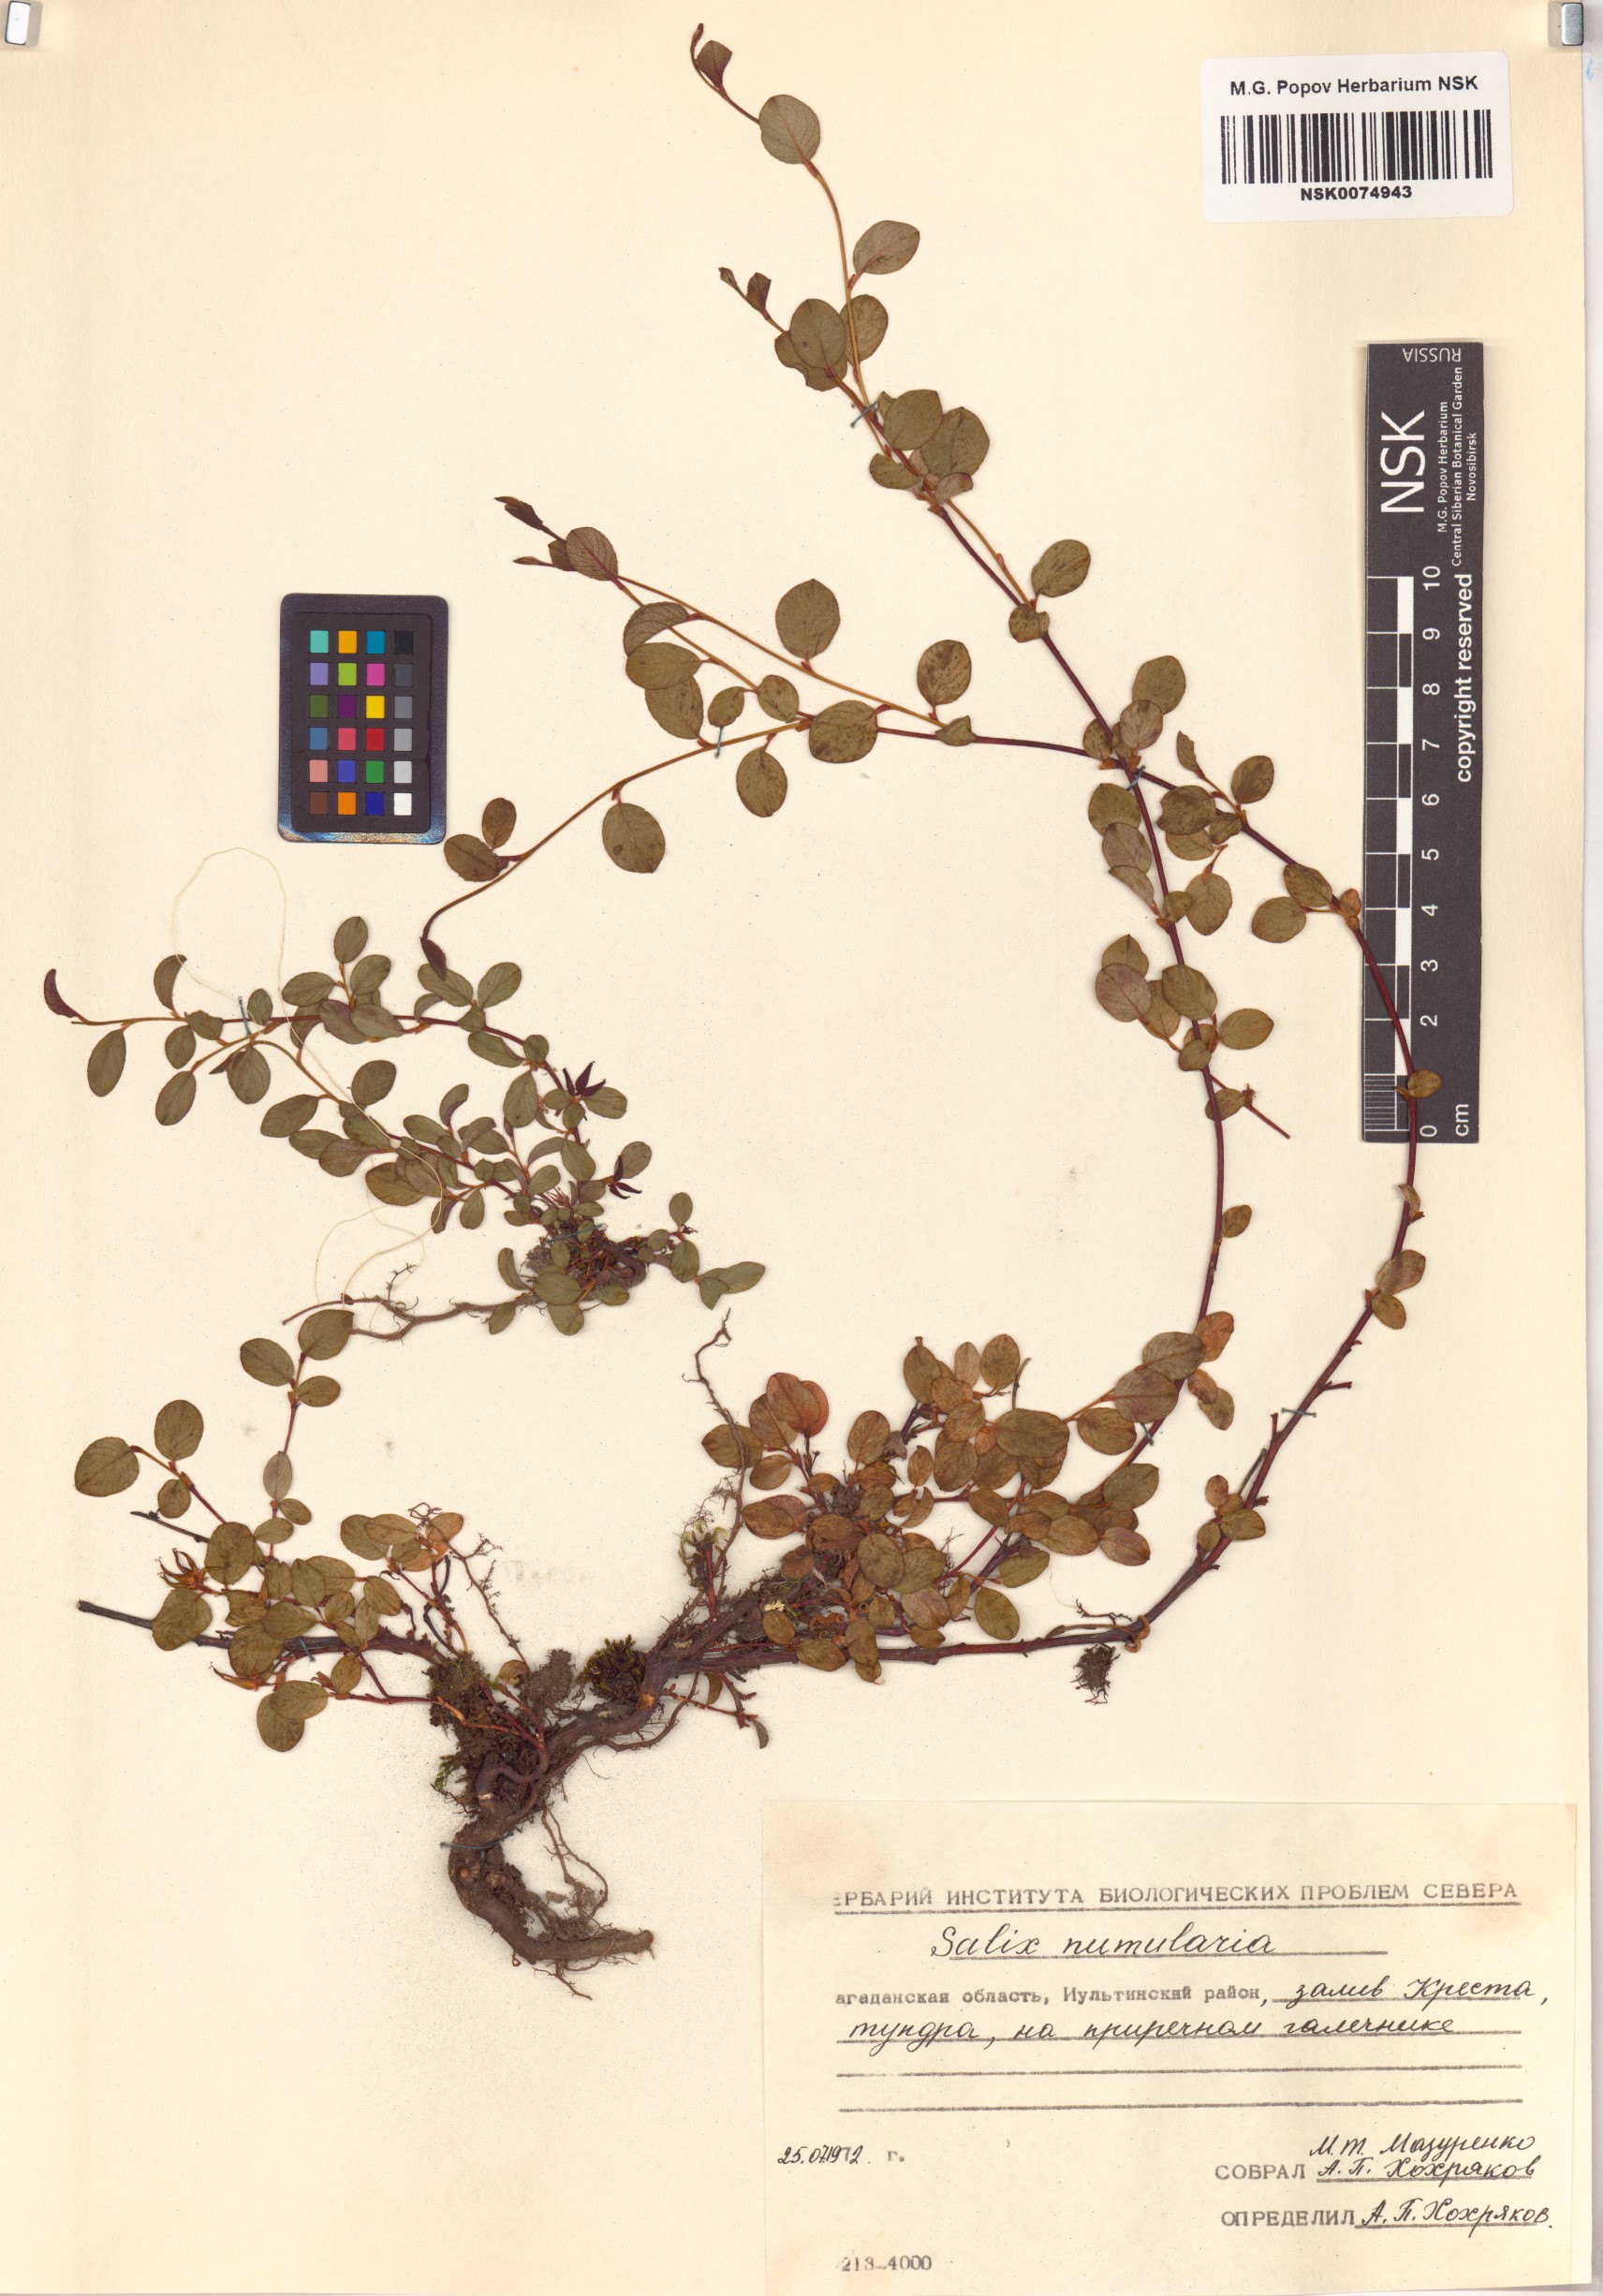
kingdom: Plantae
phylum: Tracheophyta
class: Magnoliopsida
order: Malpighiales
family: Salicaceae
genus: Salix
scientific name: Salix nummularia
